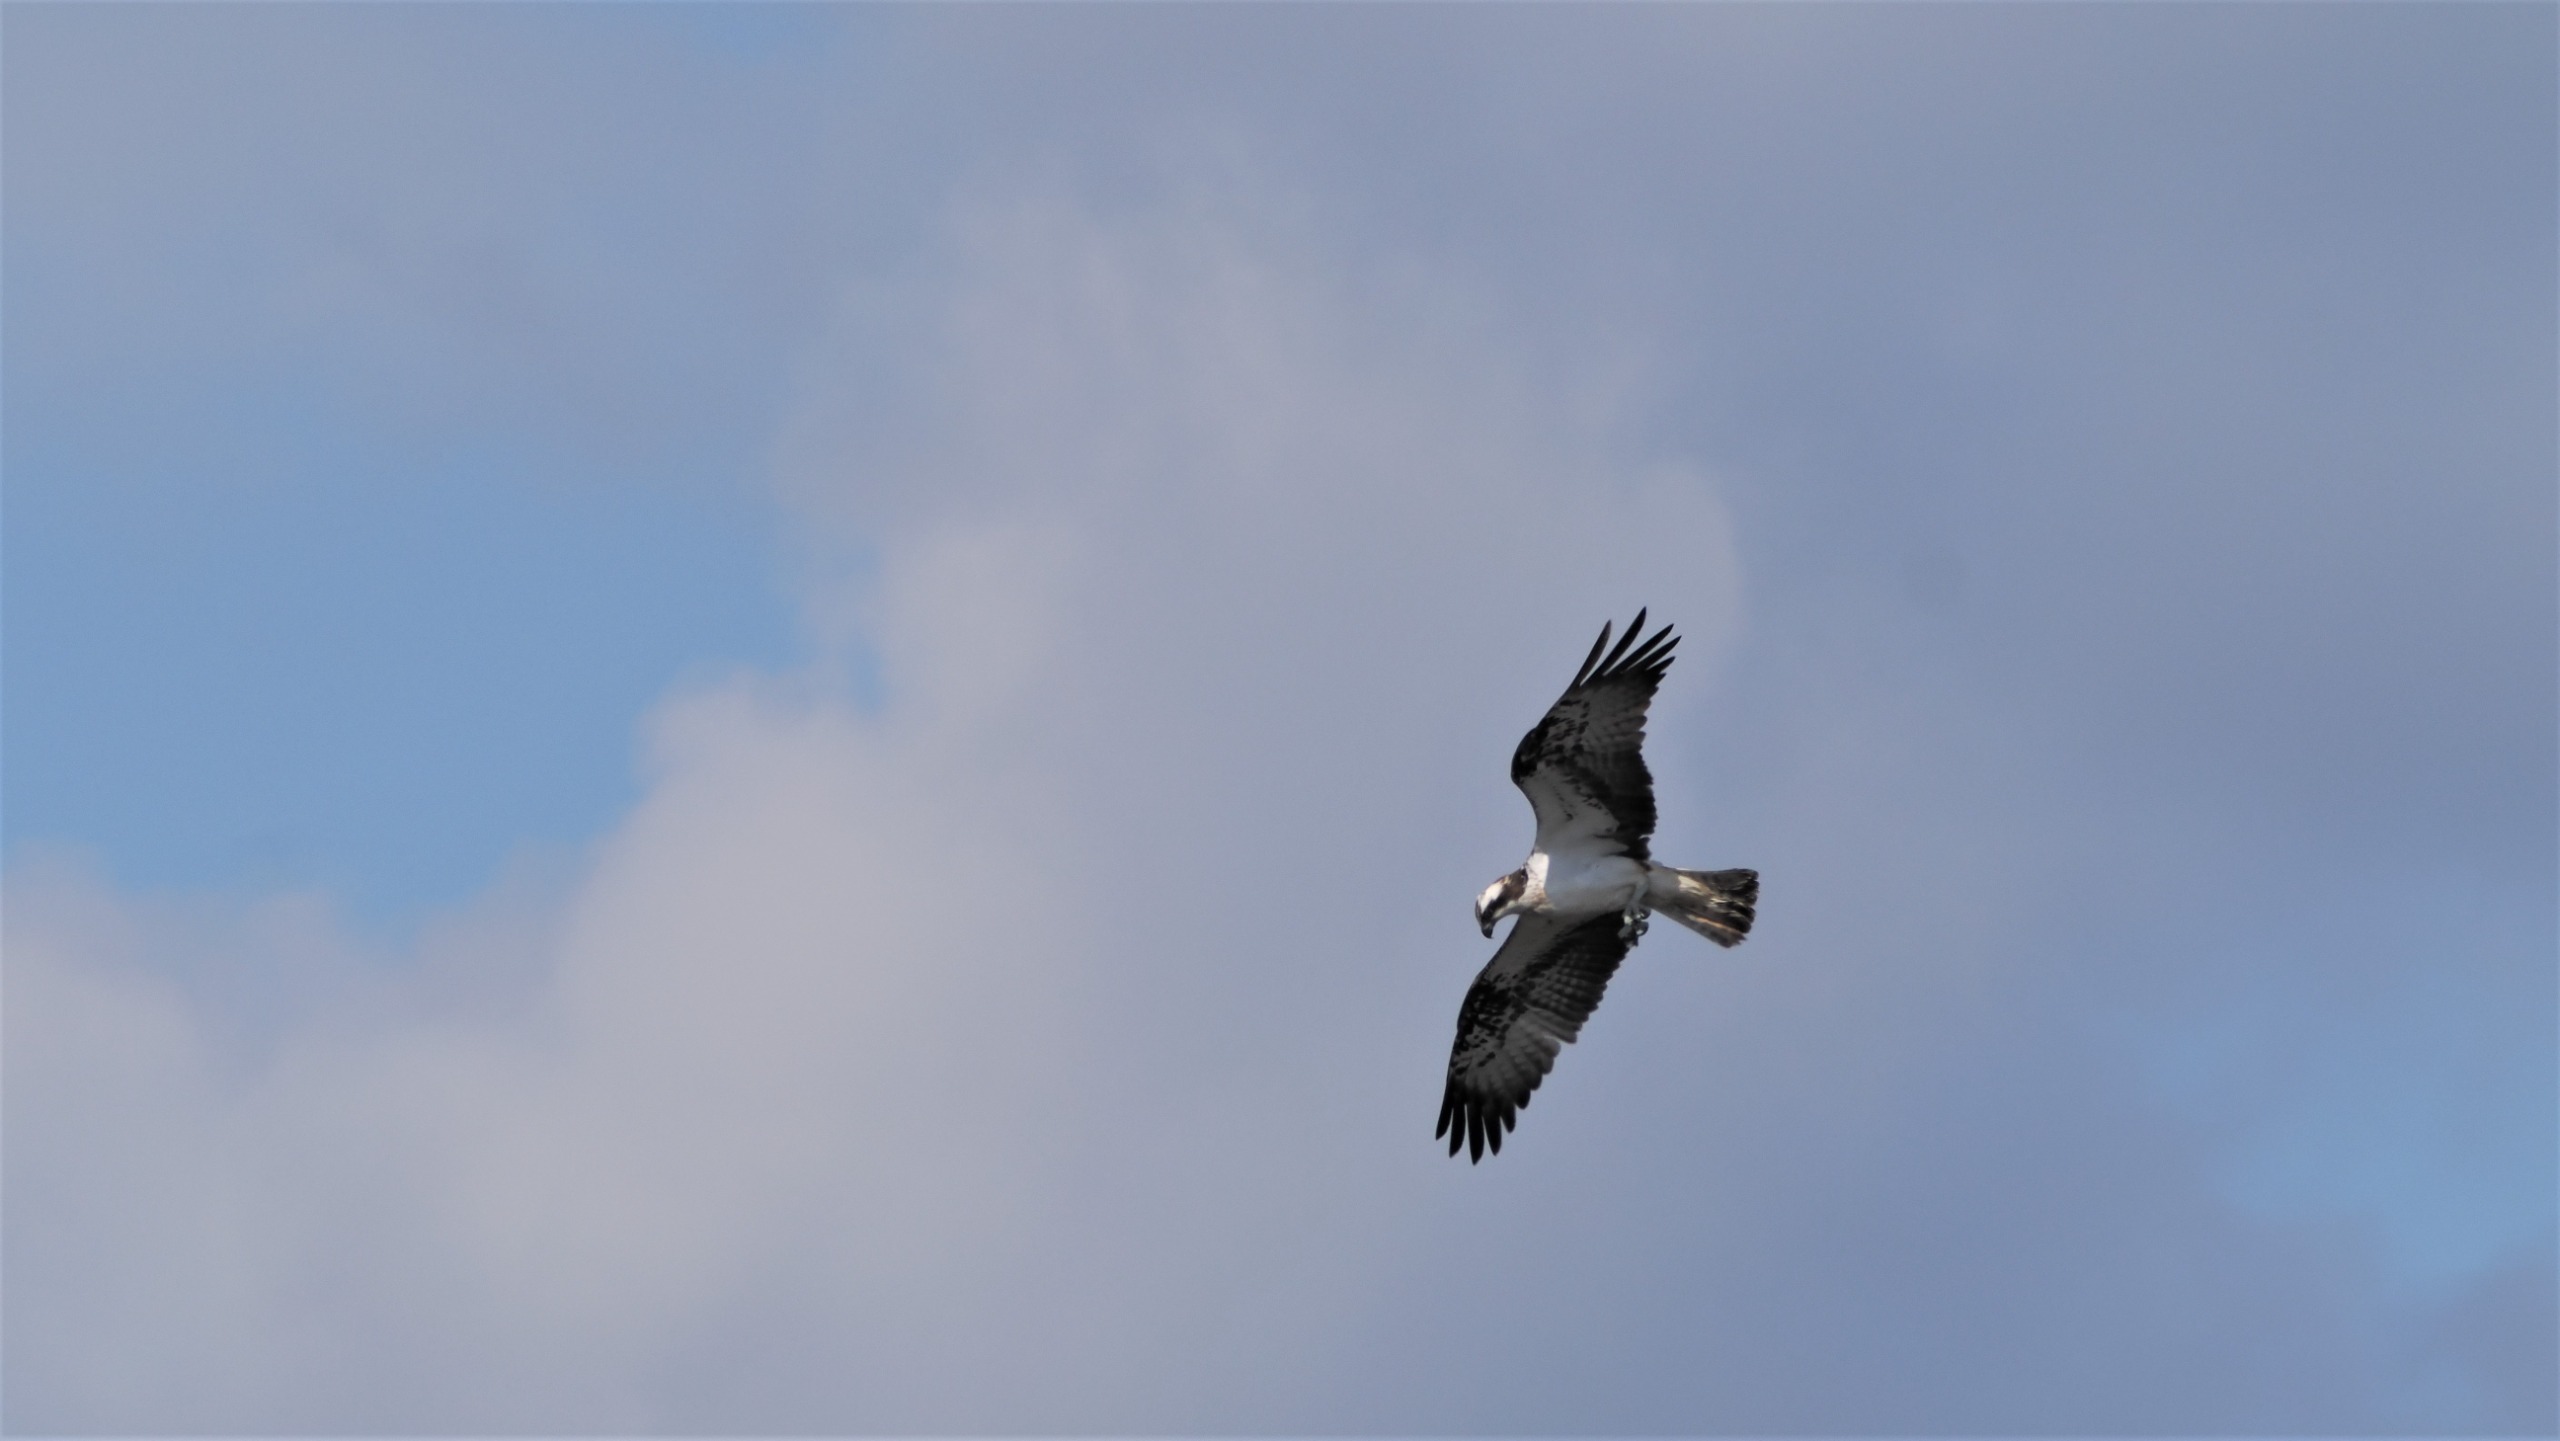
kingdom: Animalia
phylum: Chordata
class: Aves
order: Accipitriformes
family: Pandionidae
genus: Pandion
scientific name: Pandion haliaetus
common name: Fiskeørn
